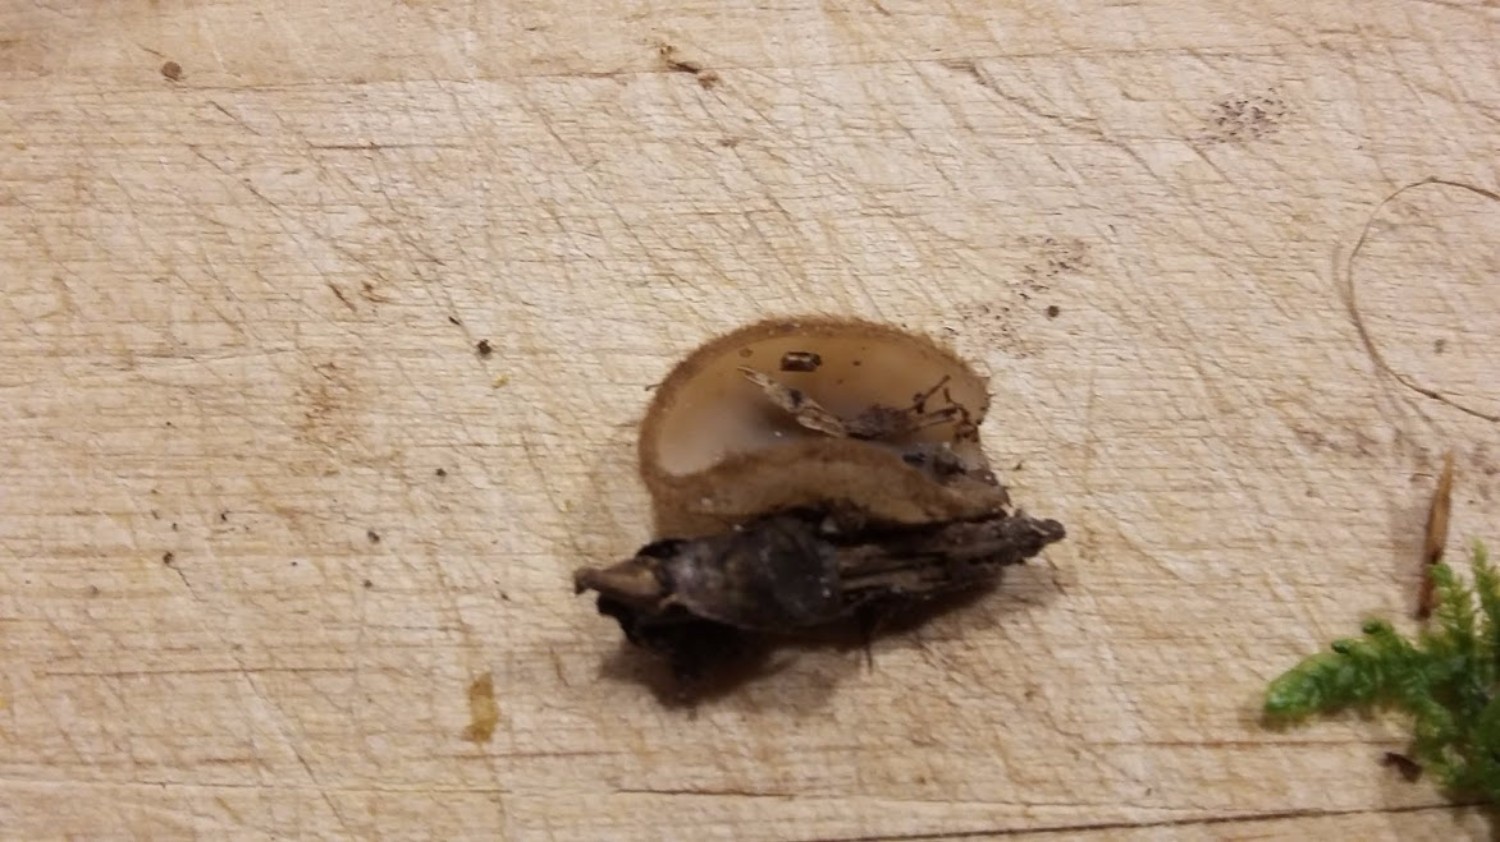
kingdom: Fungi
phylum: Ascomycota
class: Pezizomycetes
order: Pezizales
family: Pyronemataceae
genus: Humaria
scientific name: Humaria hemisphaerica
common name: halvkugleformet børstebæger
